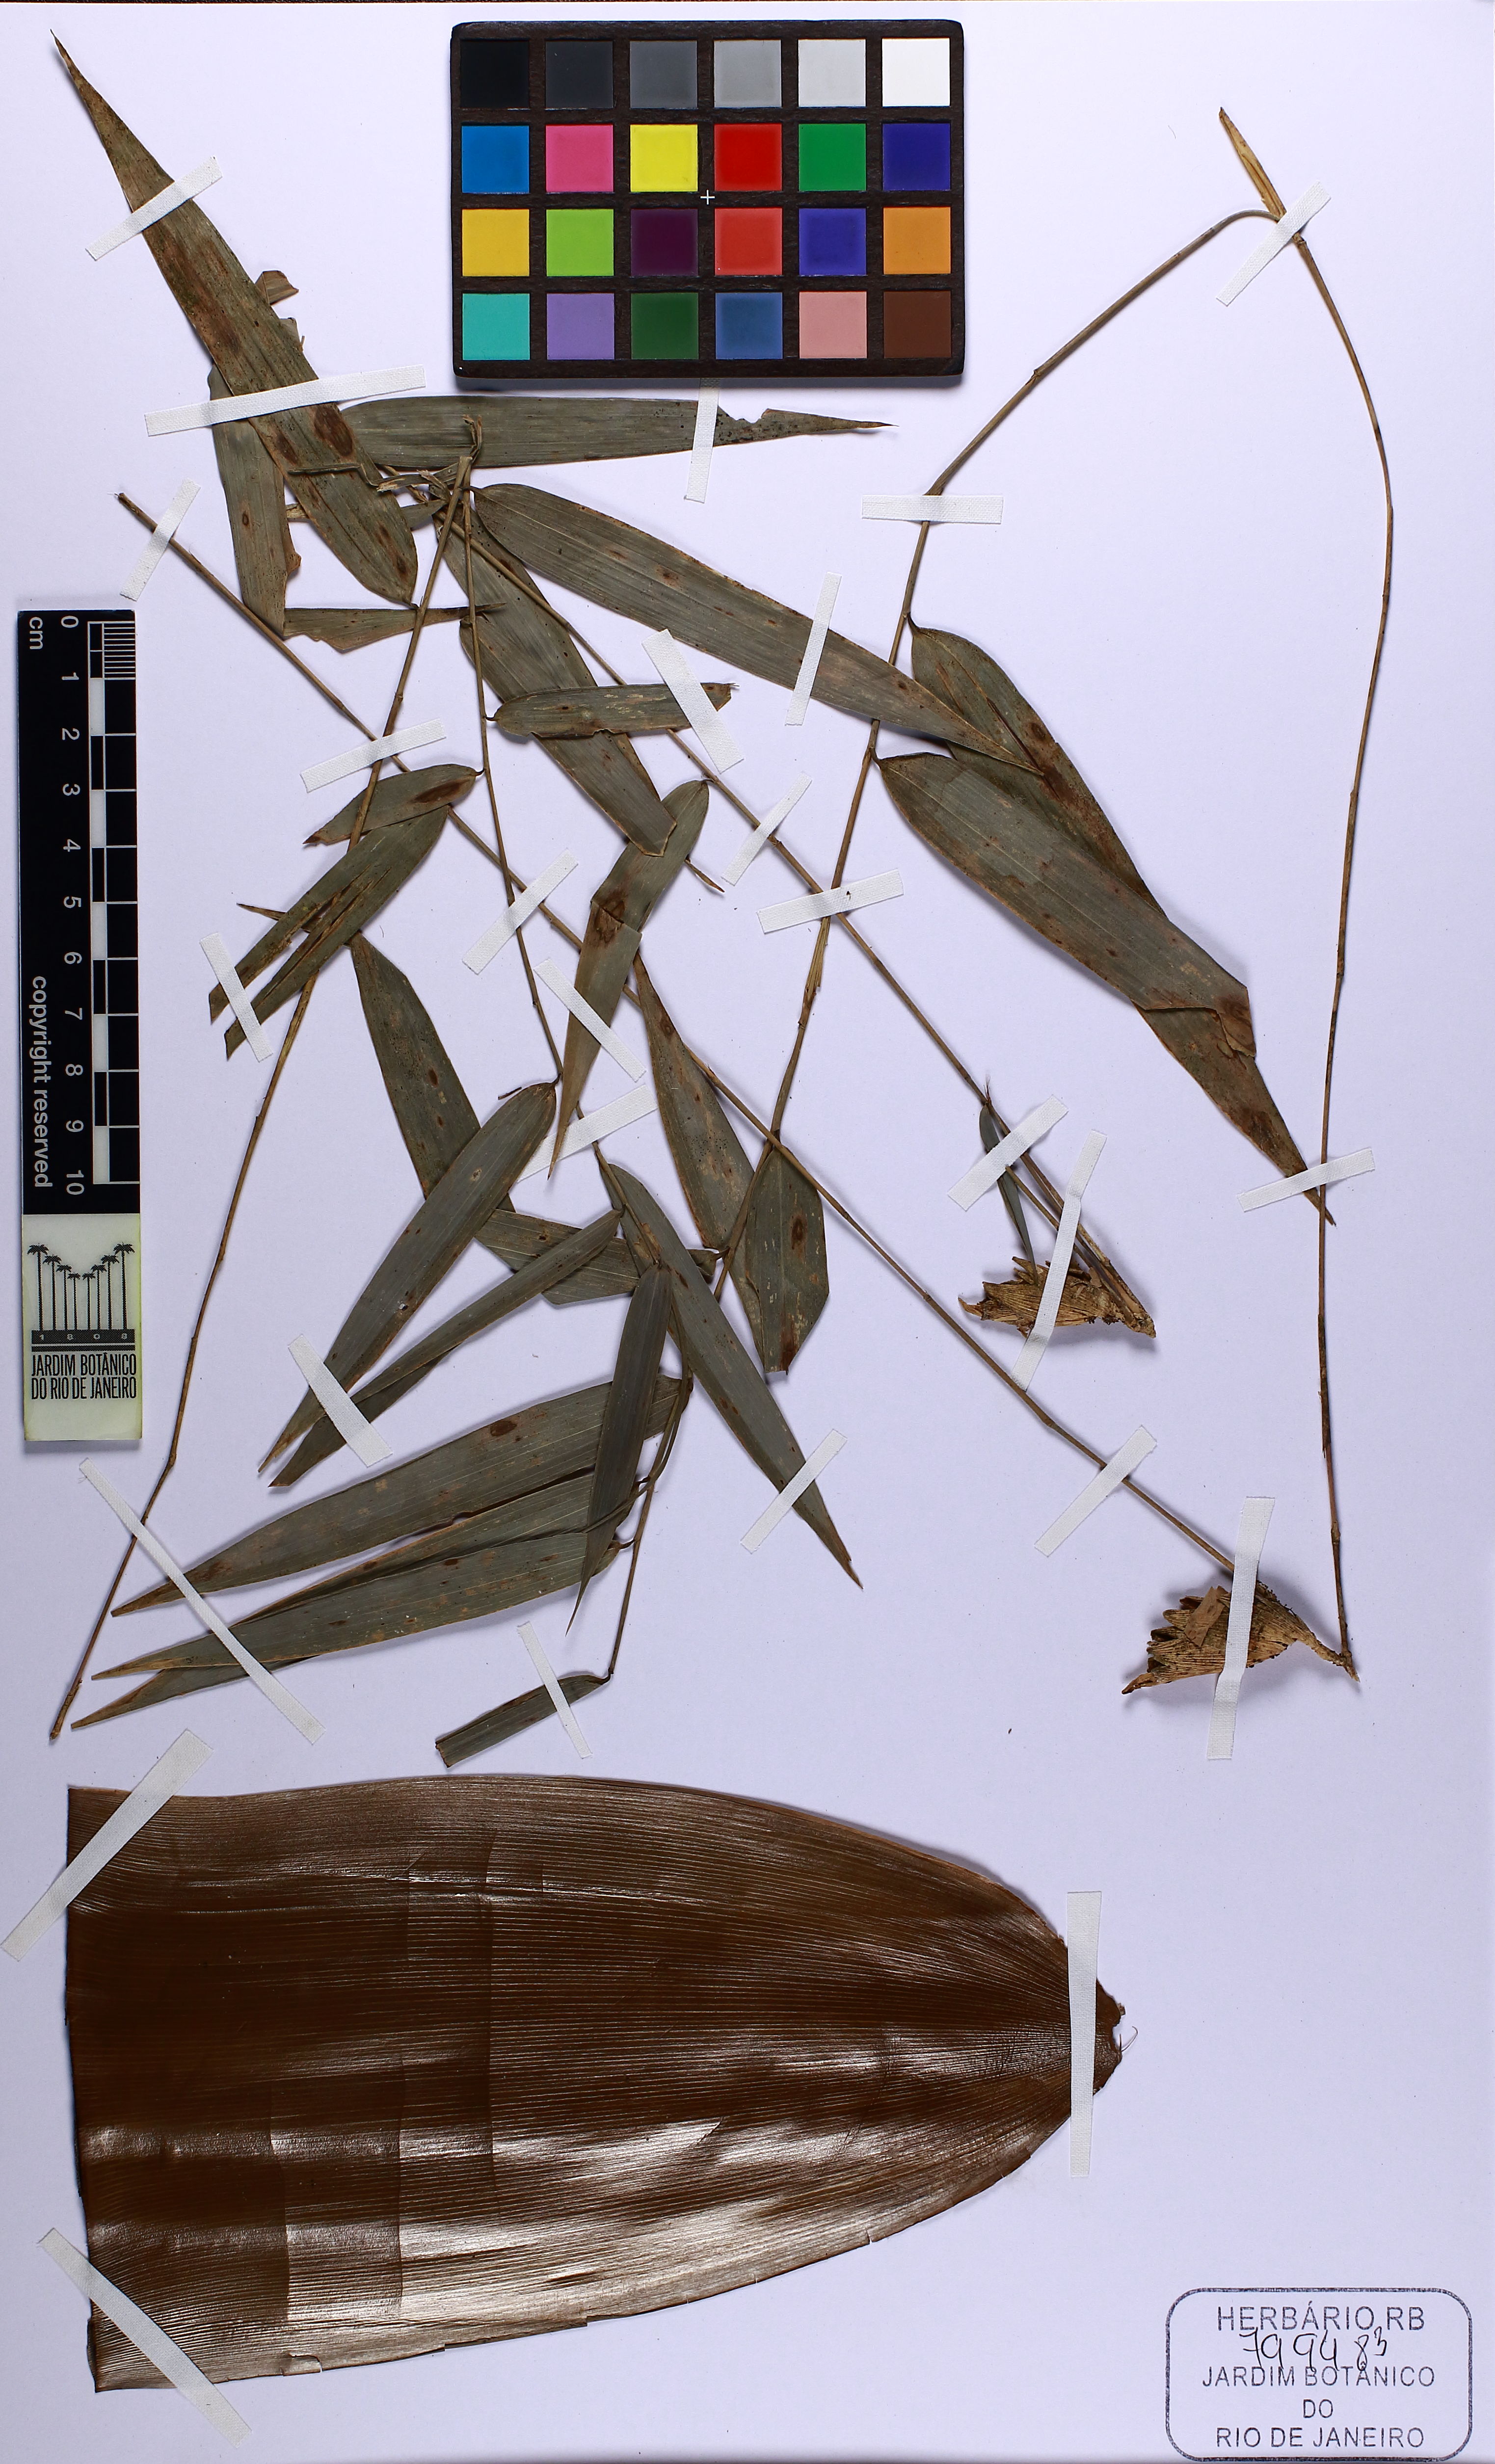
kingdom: Plantae
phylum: Tracheophyta
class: Liliopsida
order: Poales
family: Poaceae
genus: Merostachys
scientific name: Merostachys fistulosa
